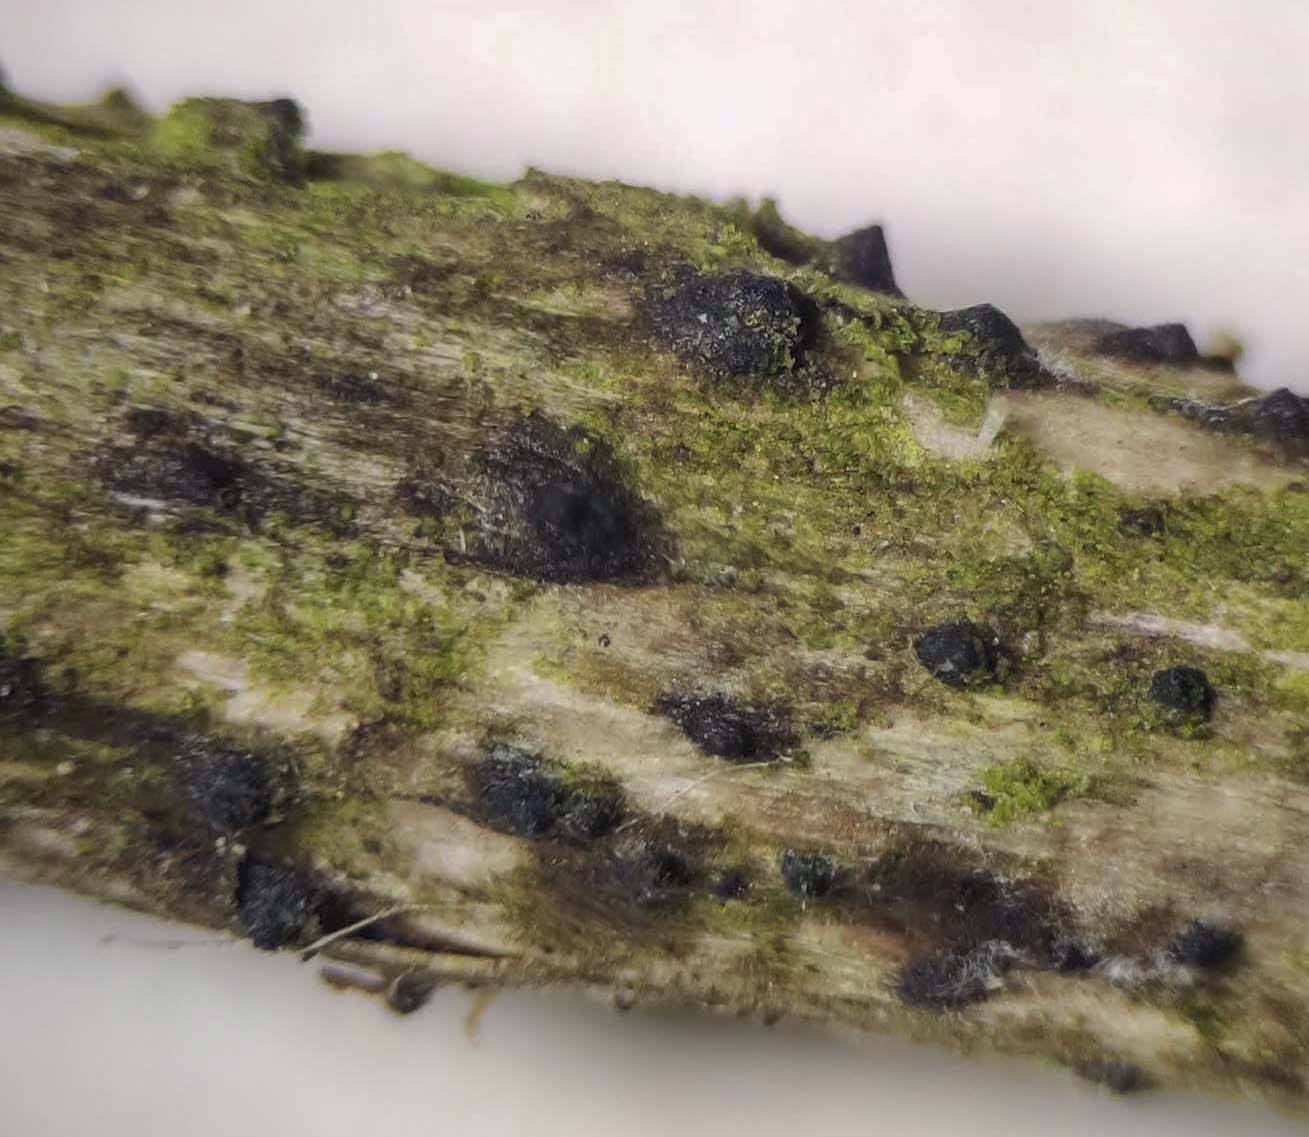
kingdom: Fungi
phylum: Ascomycota
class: Sordariomycetes
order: Xylariales
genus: Melomastia
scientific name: Melomastia mastoidea
